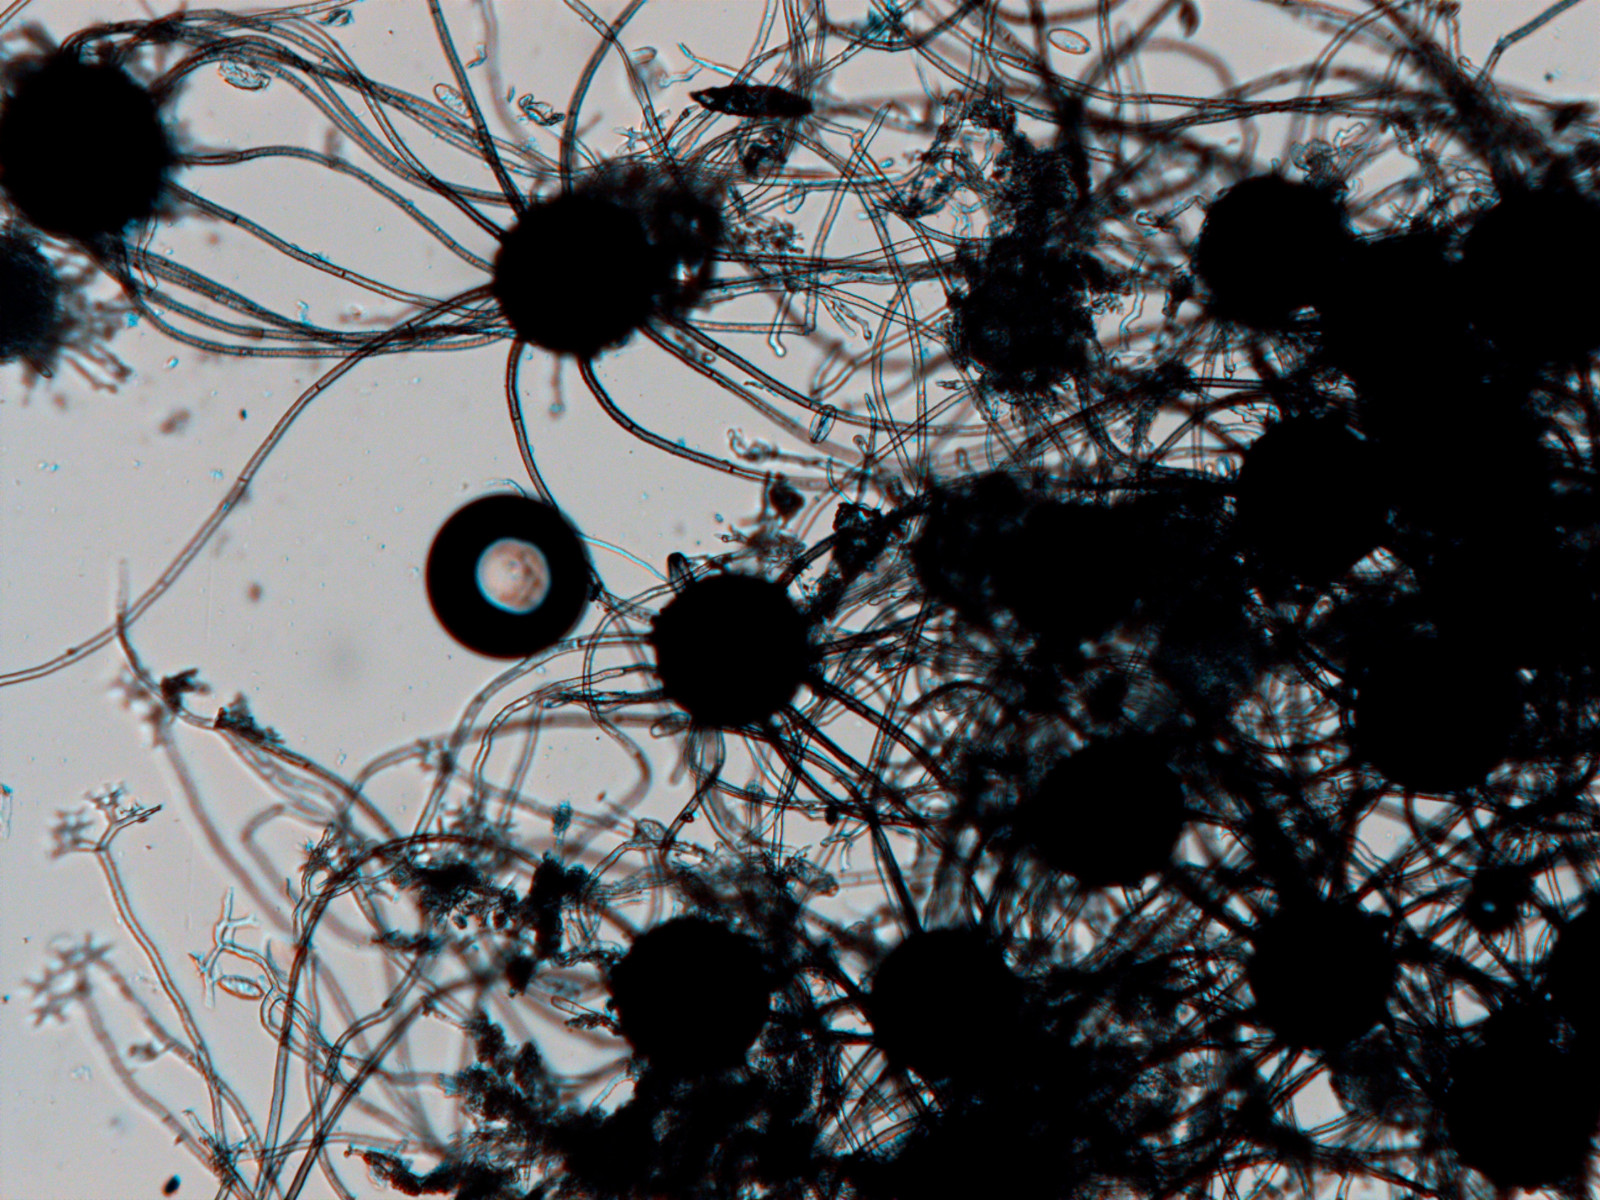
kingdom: Fungi
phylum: Ascomycota
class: Leotiomycetes
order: Helotiales
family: Erysiphaceae
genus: Erysiphe
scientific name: Erysiphe russellii
